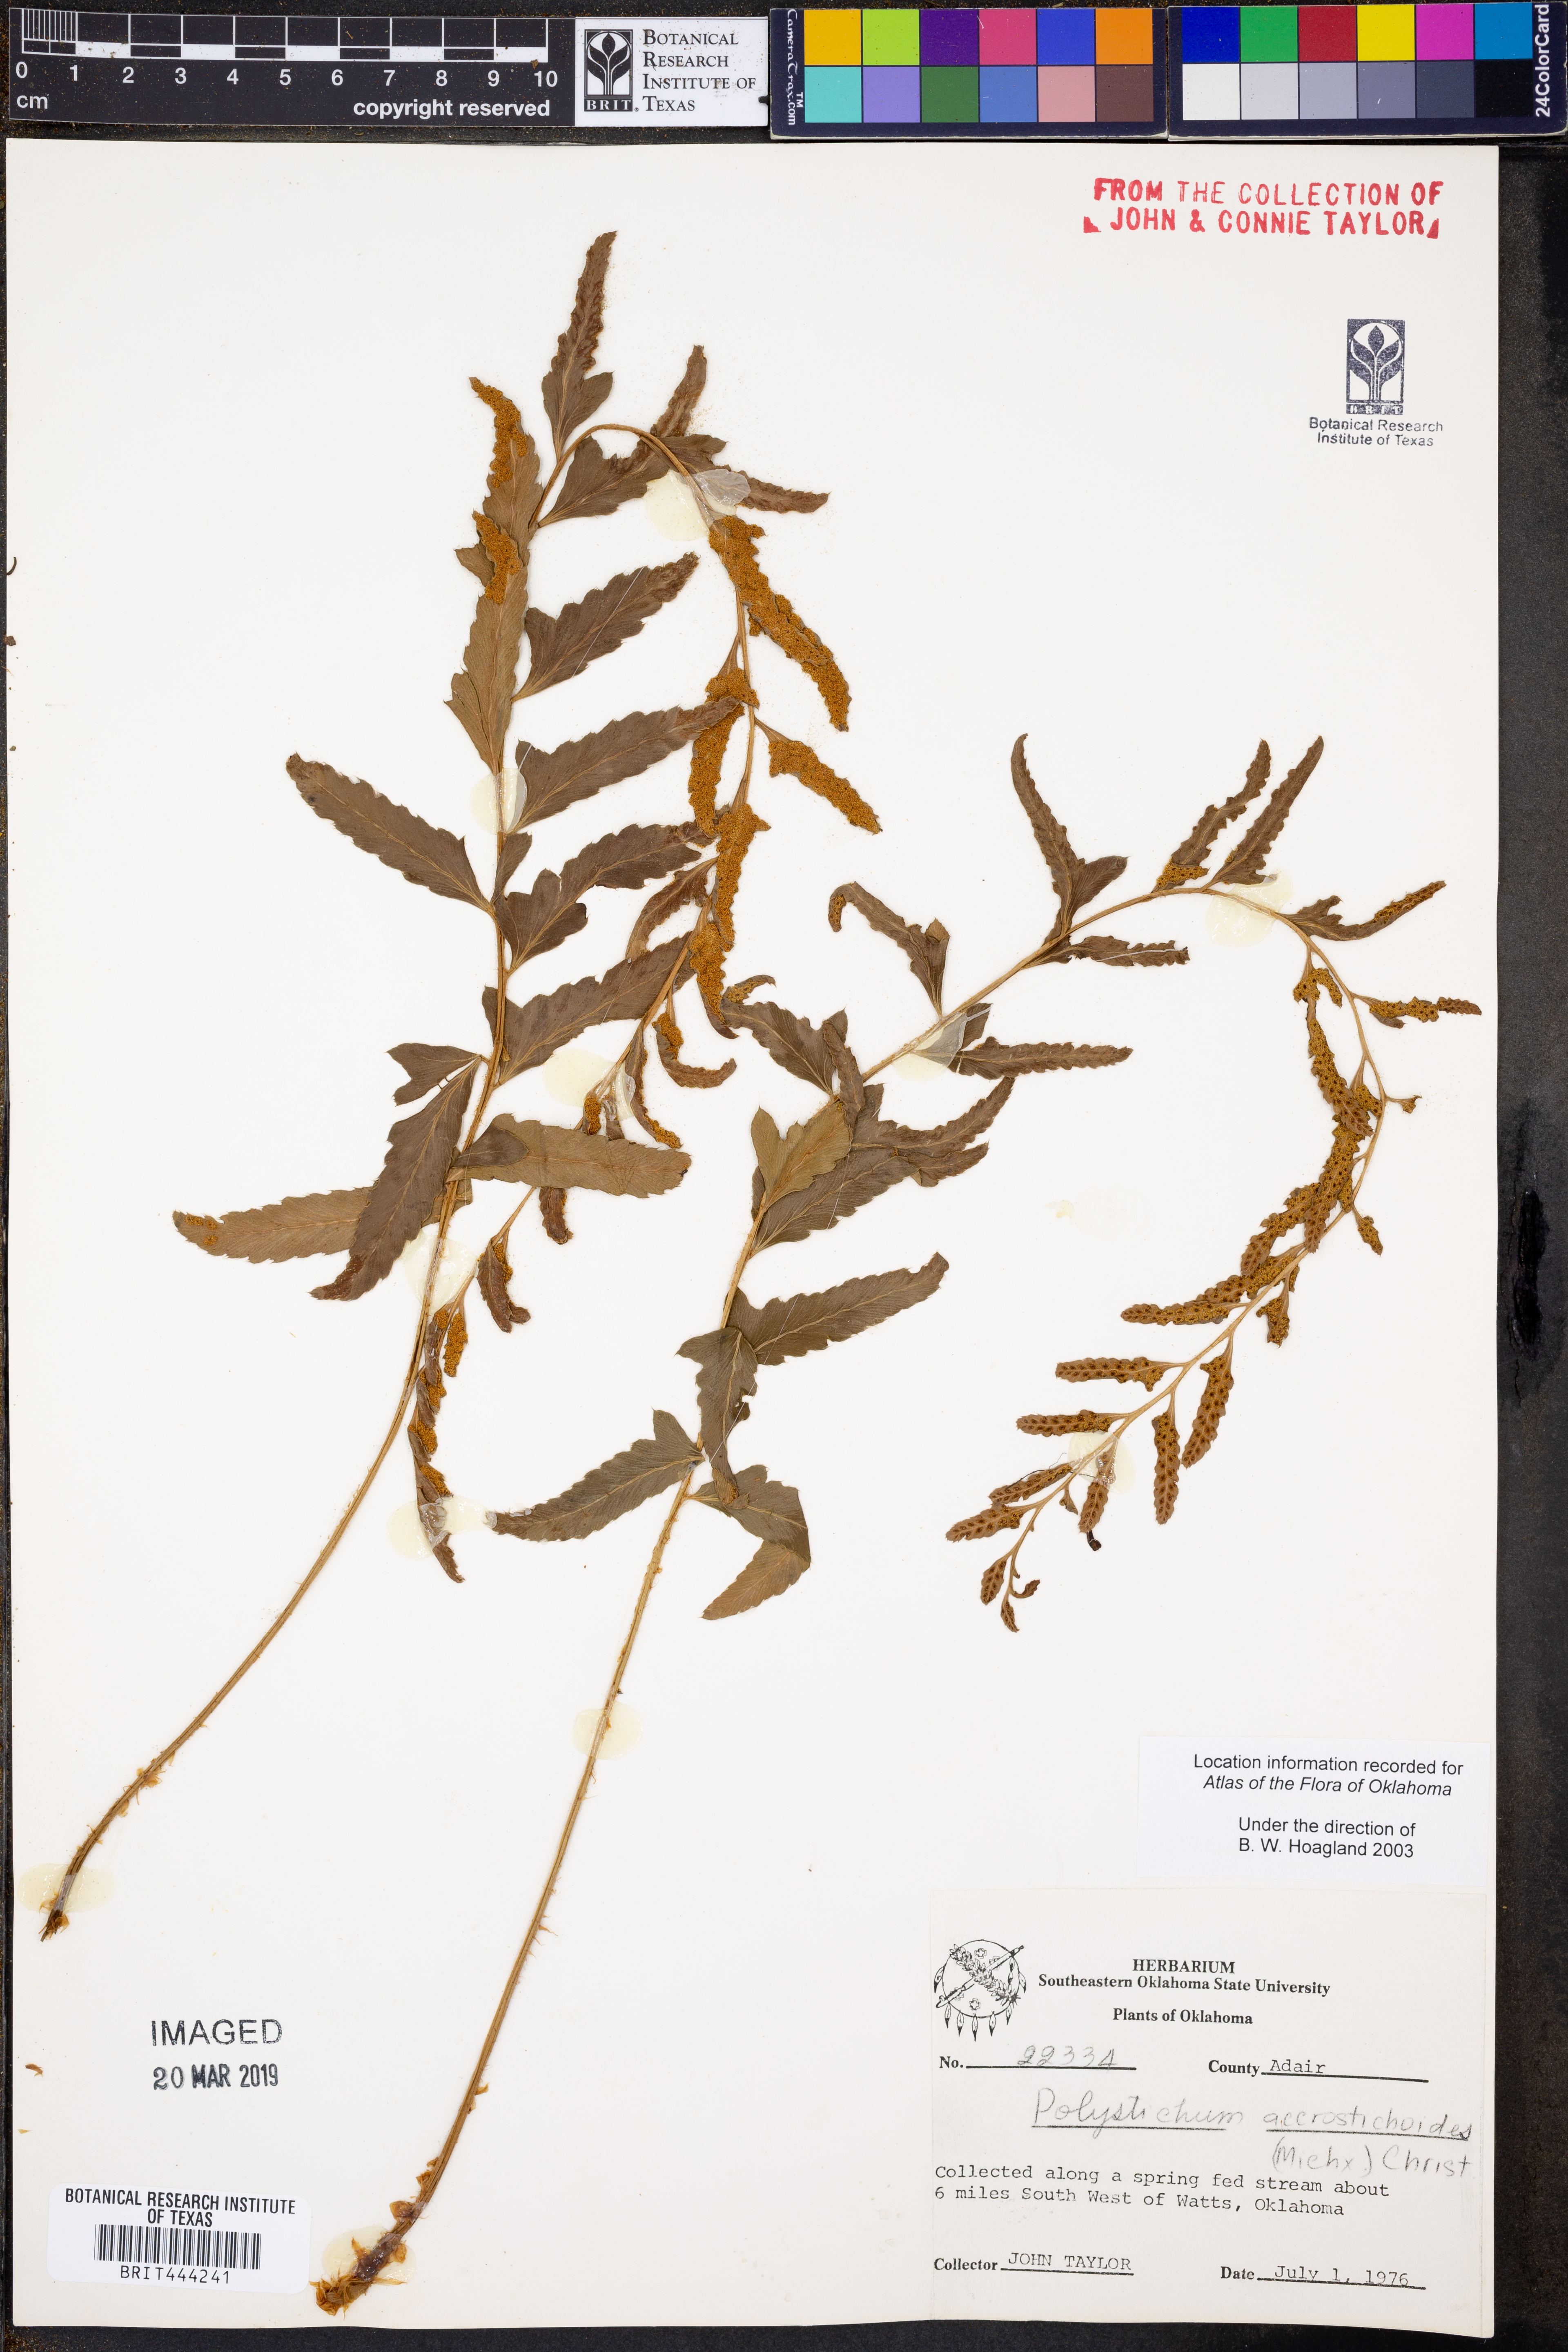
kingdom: Plantae
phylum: Tracheophyta
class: Polypodiopsida
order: Polypodiales
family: Dryopteridaceae
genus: Polystichum
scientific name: Polystichum acrostichoides
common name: Christmas fern
